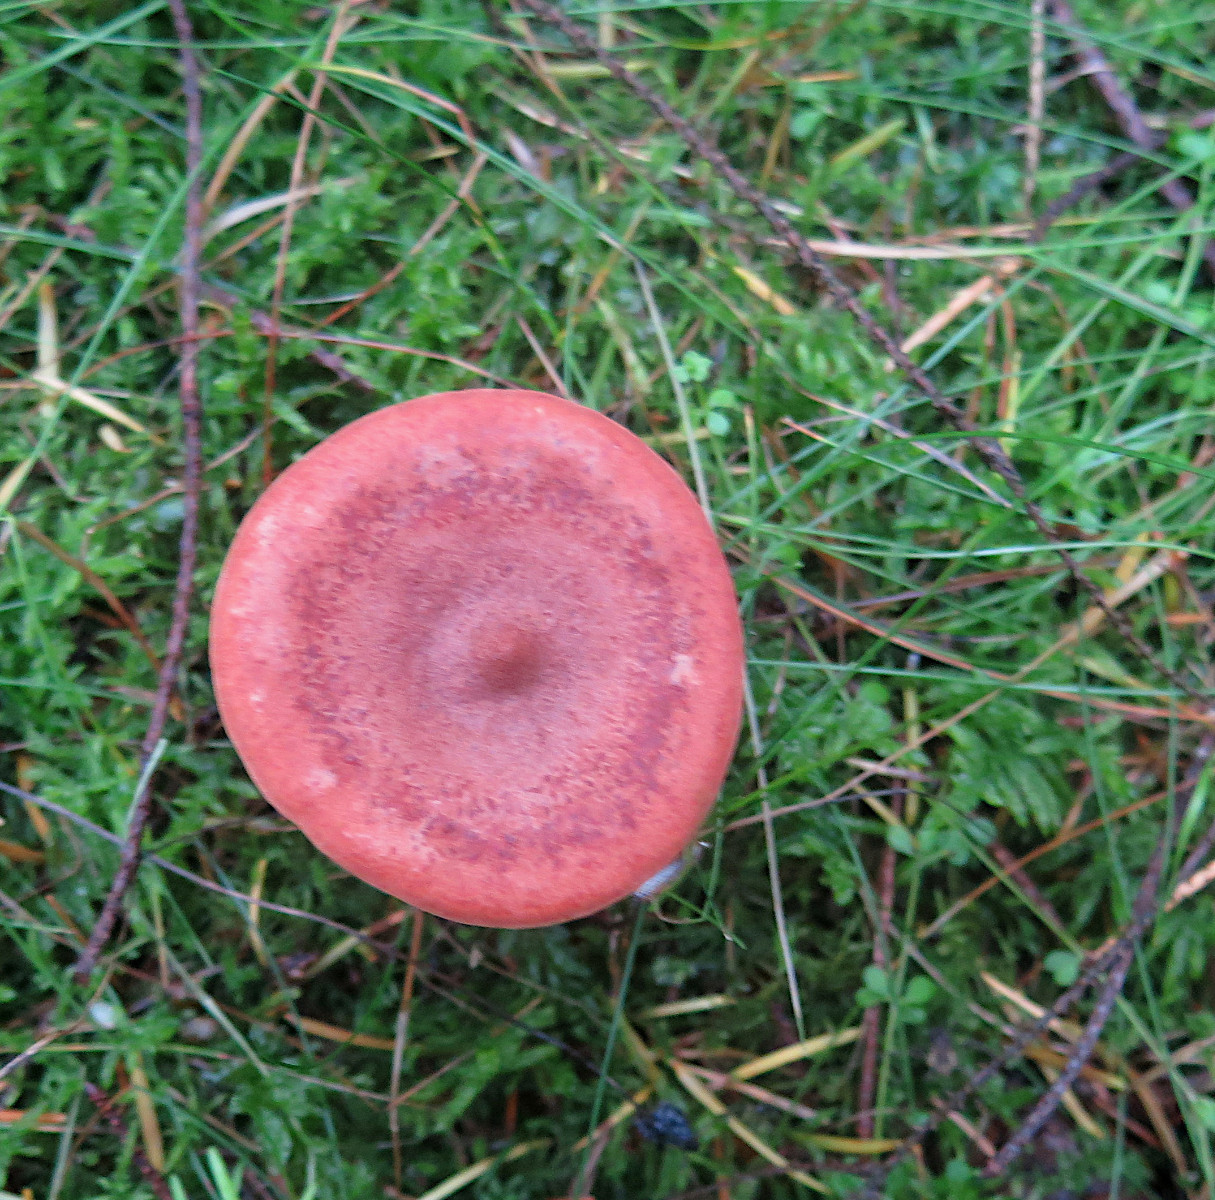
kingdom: Fungi
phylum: Basidiomycota
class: Agaricomycetes
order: Russulales
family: Russulaceae
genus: Lactarius
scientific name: Lactarius rufus
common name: rødbrun mælkehat
